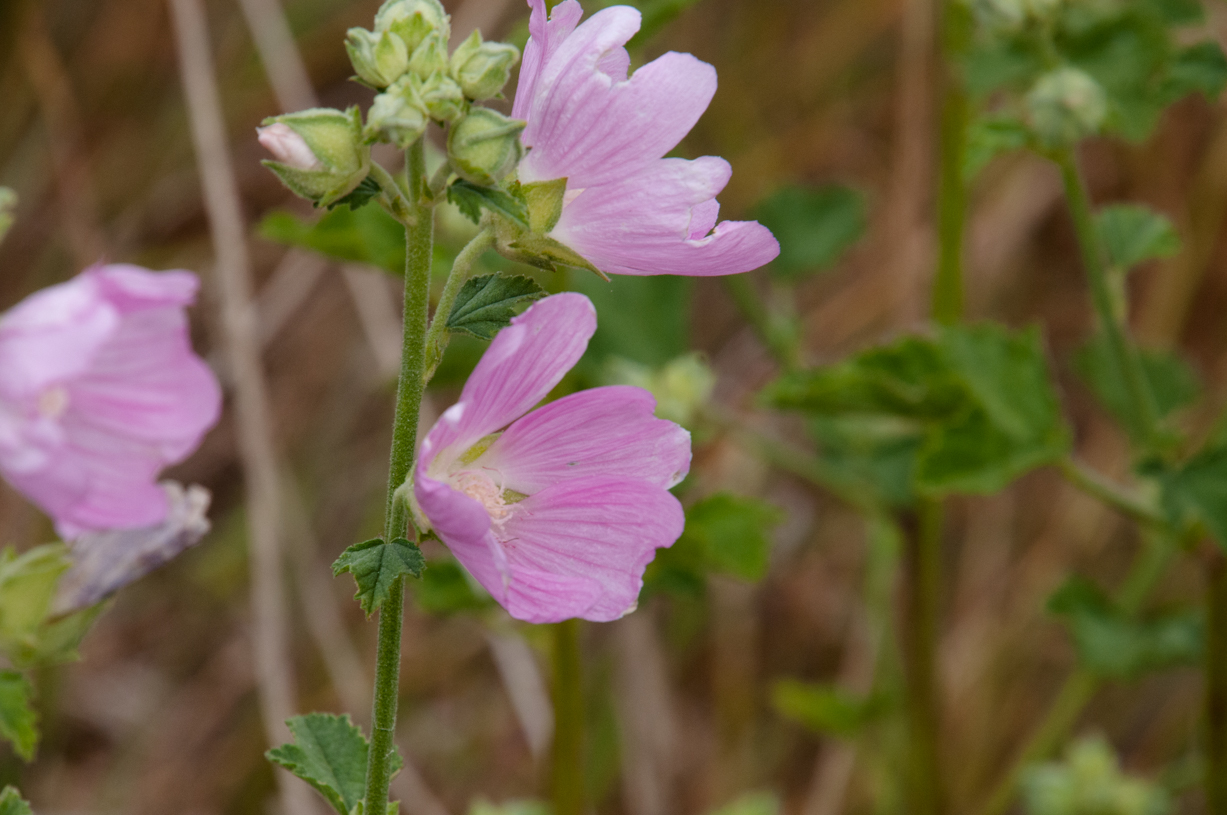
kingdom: Plantae
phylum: Tracheophyta
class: Magnoliopsida
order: Malvales
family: Malvaceae
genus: Malva
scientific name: Malva thuringiaca
